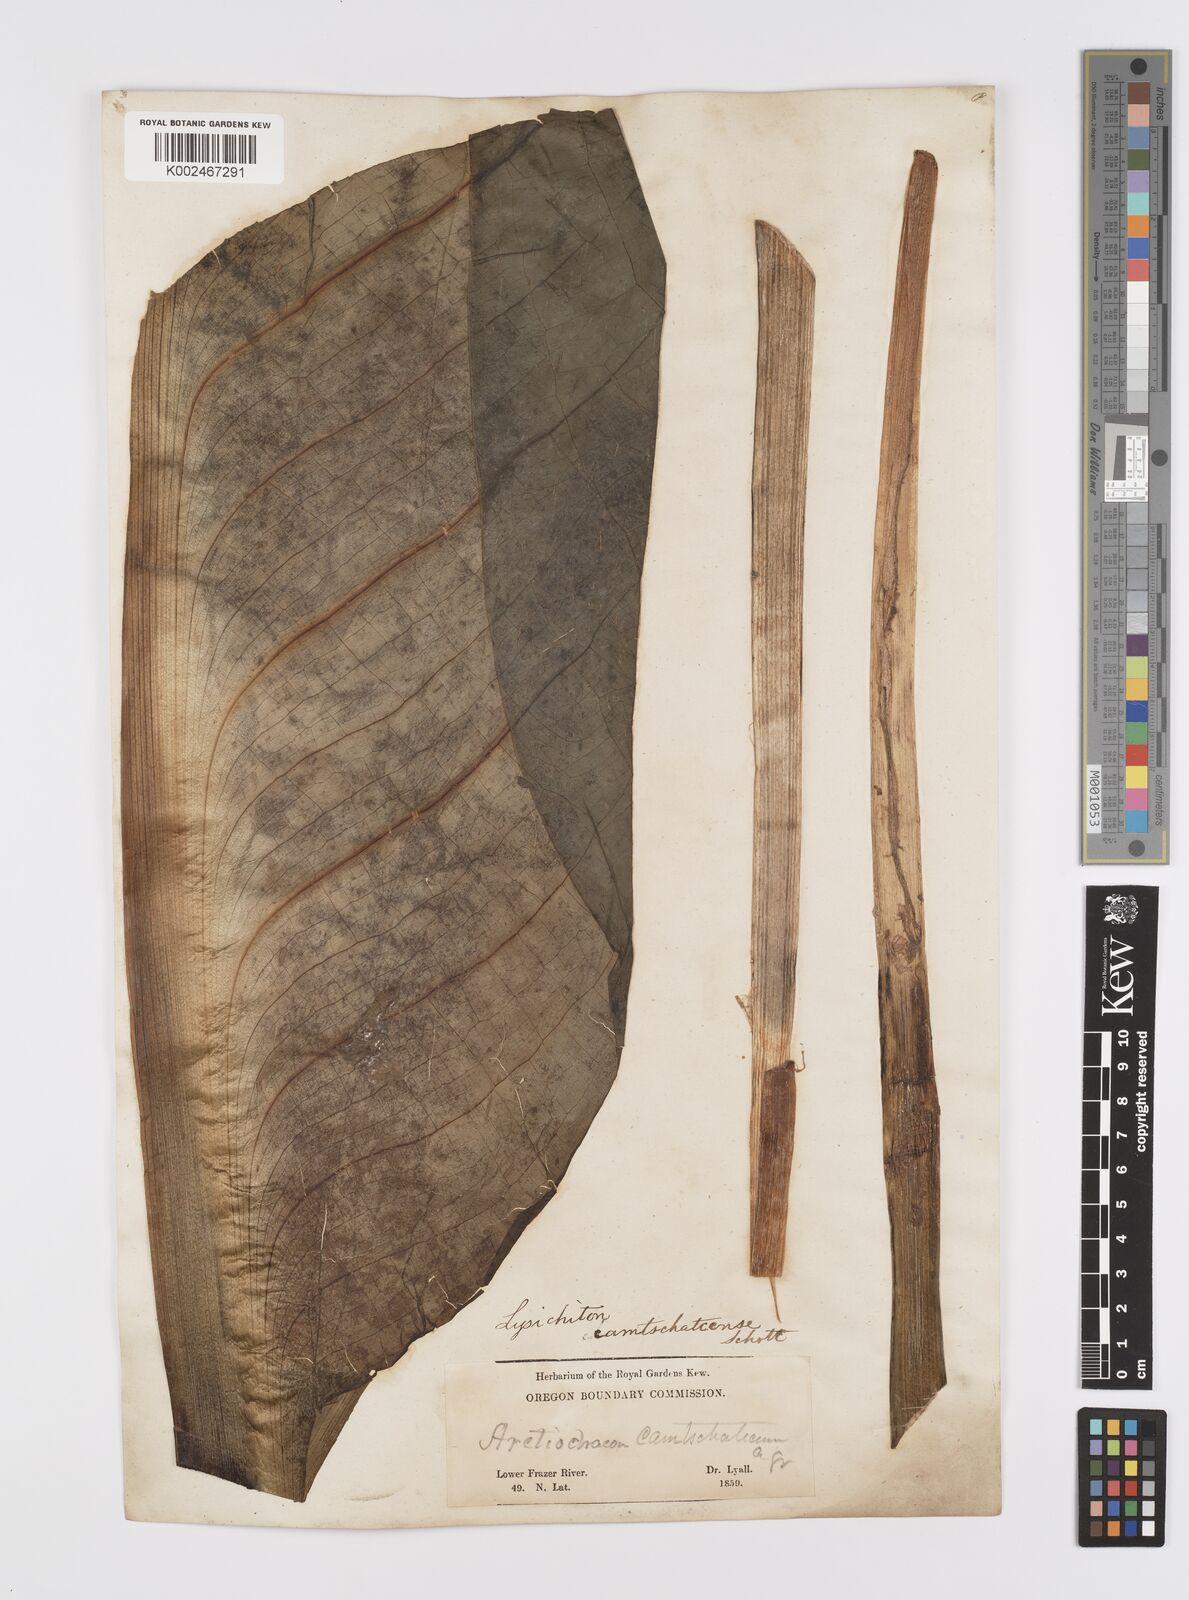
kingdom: Plantae
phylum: Tracheophyta
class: Liliopsida
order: Alismatales
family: Araceae
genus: Lysichiton
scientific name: Lysichiton americanus
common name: American skunk cabbage
